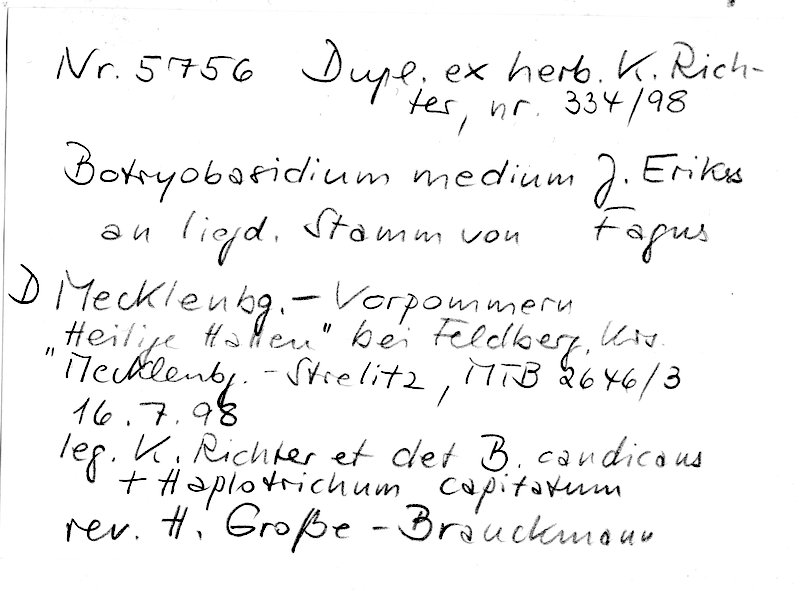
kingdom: Plantae
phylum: Tracheophyta
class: Magnoliopsida
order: Fagales
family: Fagaceae
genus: Fagus
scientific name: Fagus sylvatica
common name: Beech
